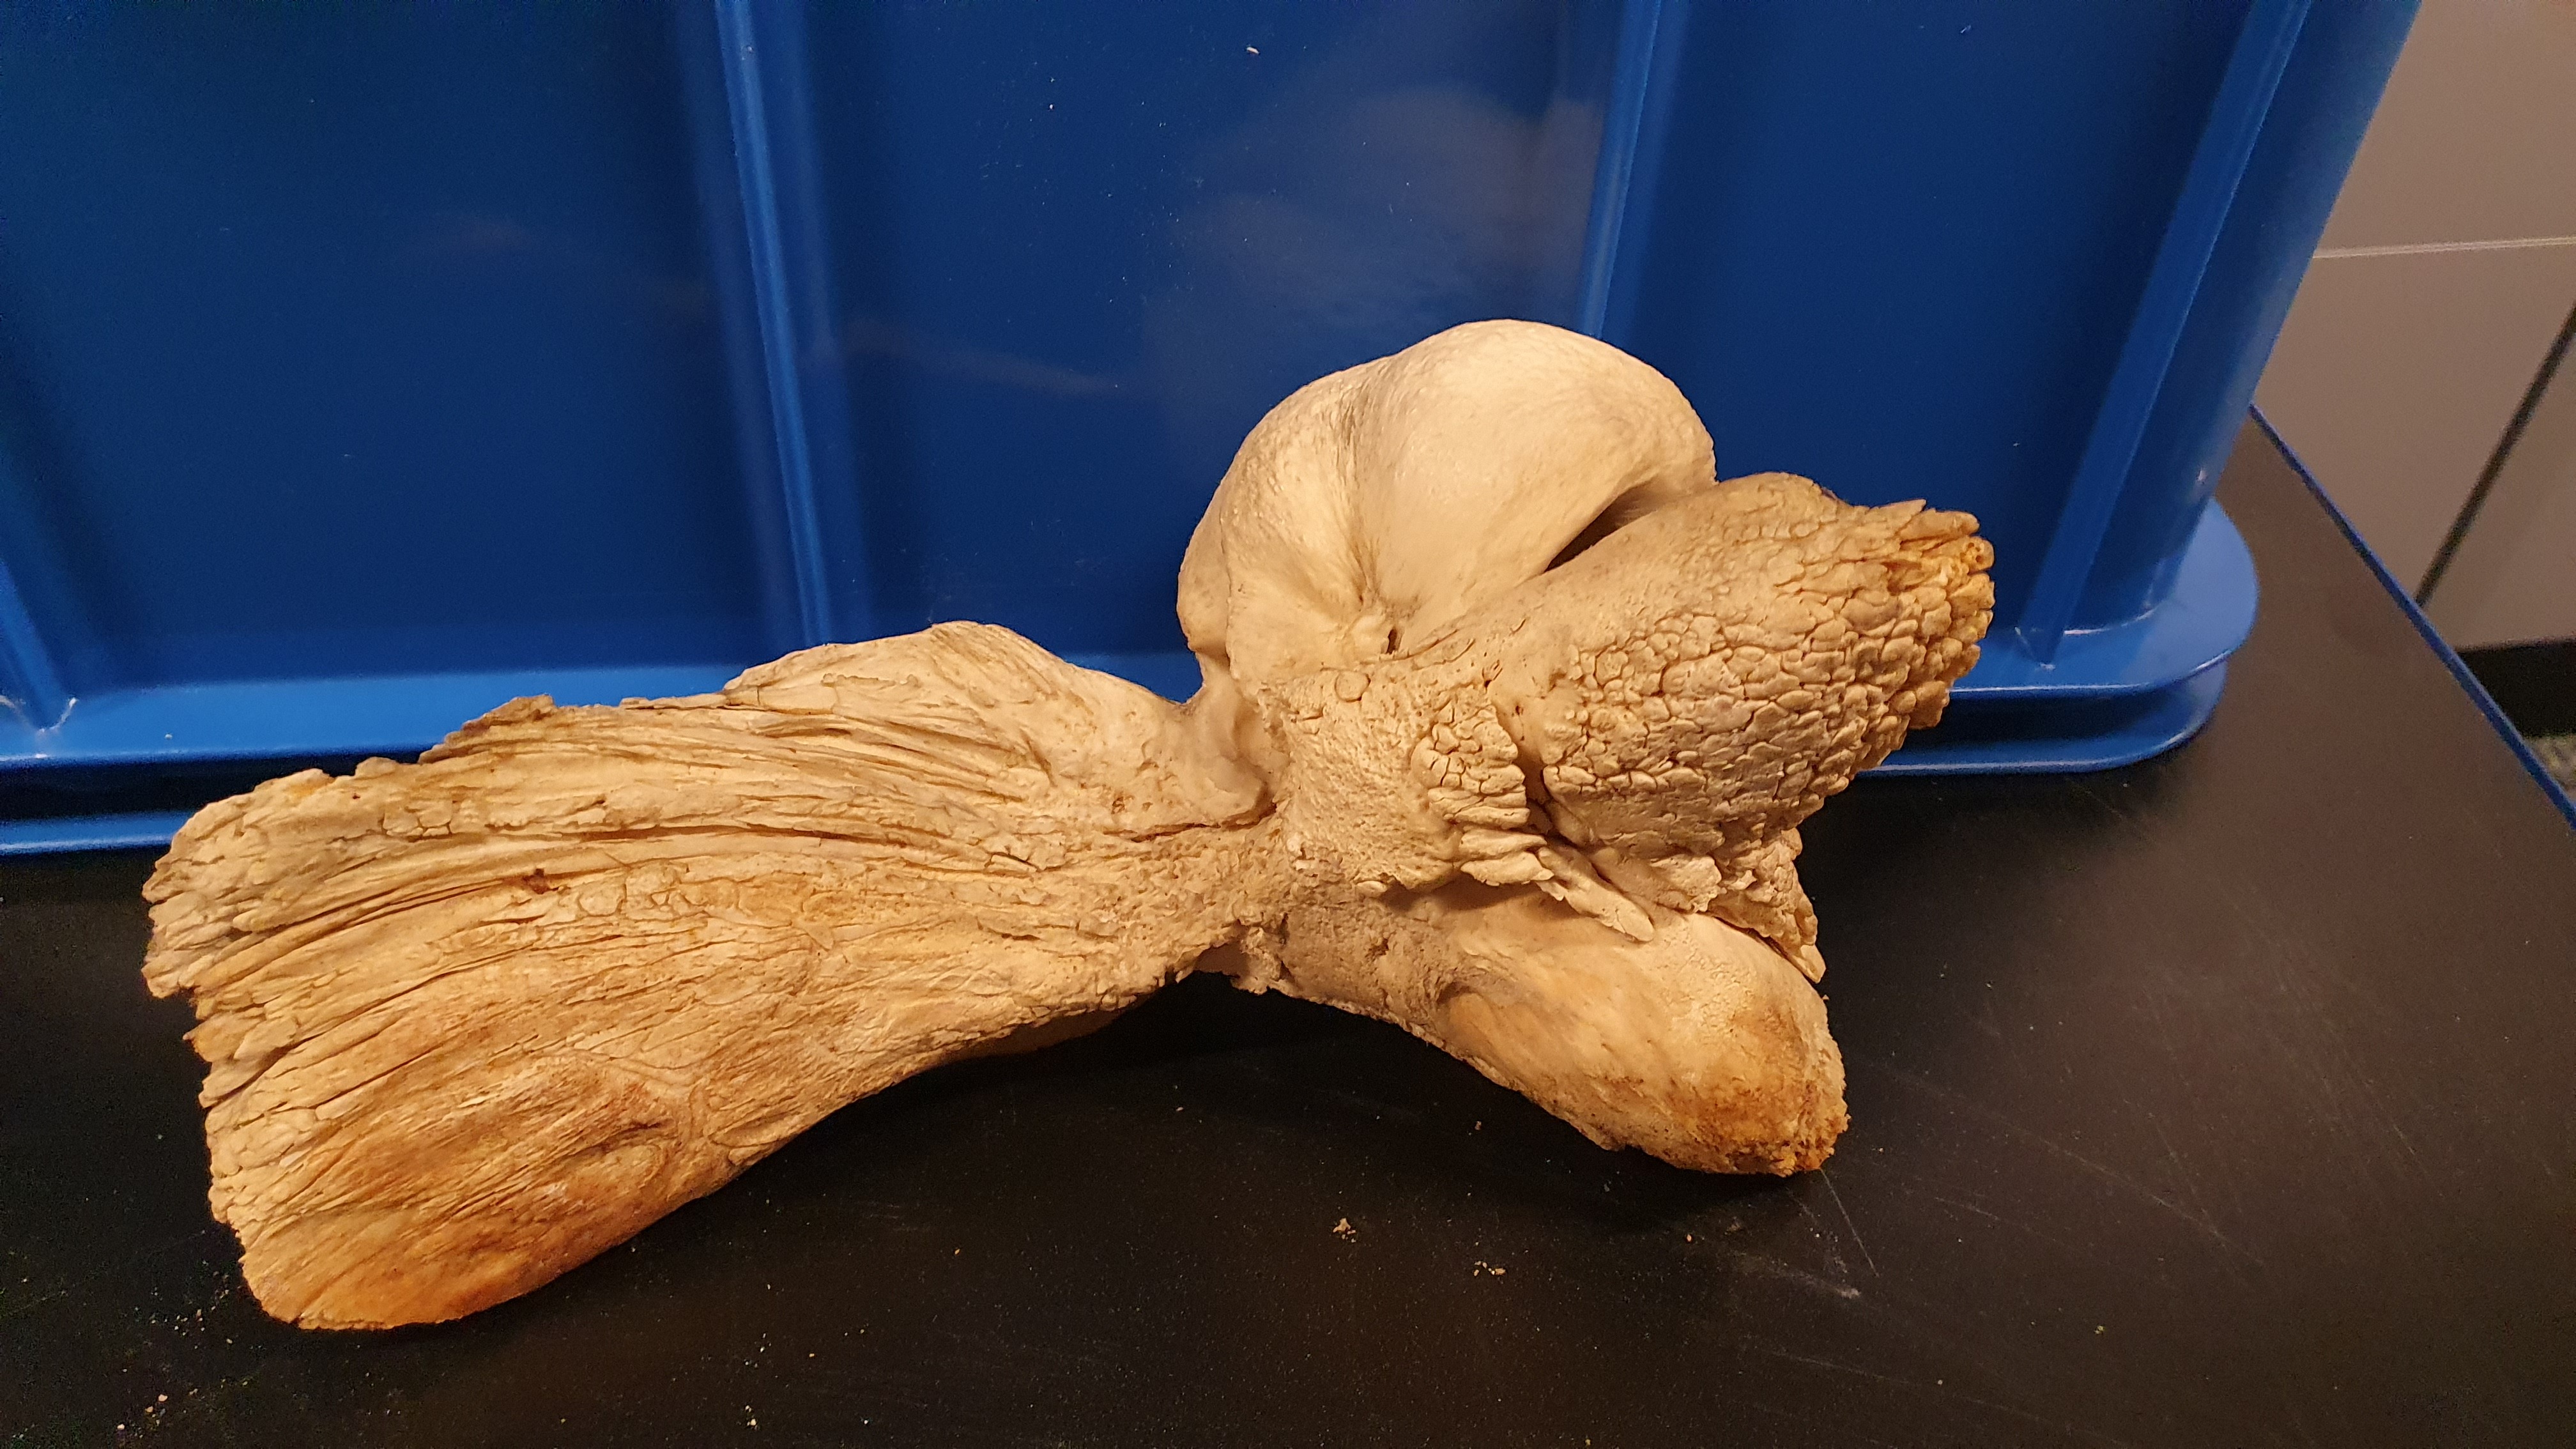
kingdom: Animalia
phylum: Chordata
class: Mammalia
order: Cetacea
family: Balaenopteridae
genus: Megaptera
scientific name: Megaptera novaeangliae
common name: Humpback whale
